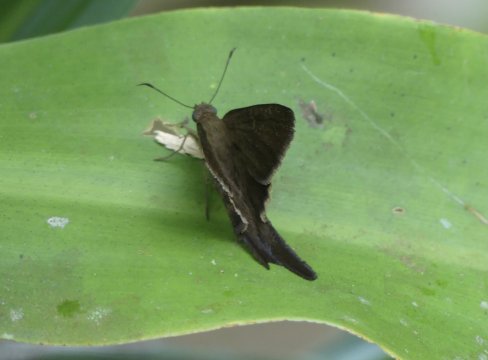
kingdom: Animalia
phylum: Arthropoda
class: Insecta
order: Lepidoptera
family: Hesperiidae
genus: Urbanus
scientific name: Urbanus simplicius
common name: Plain Longtail
